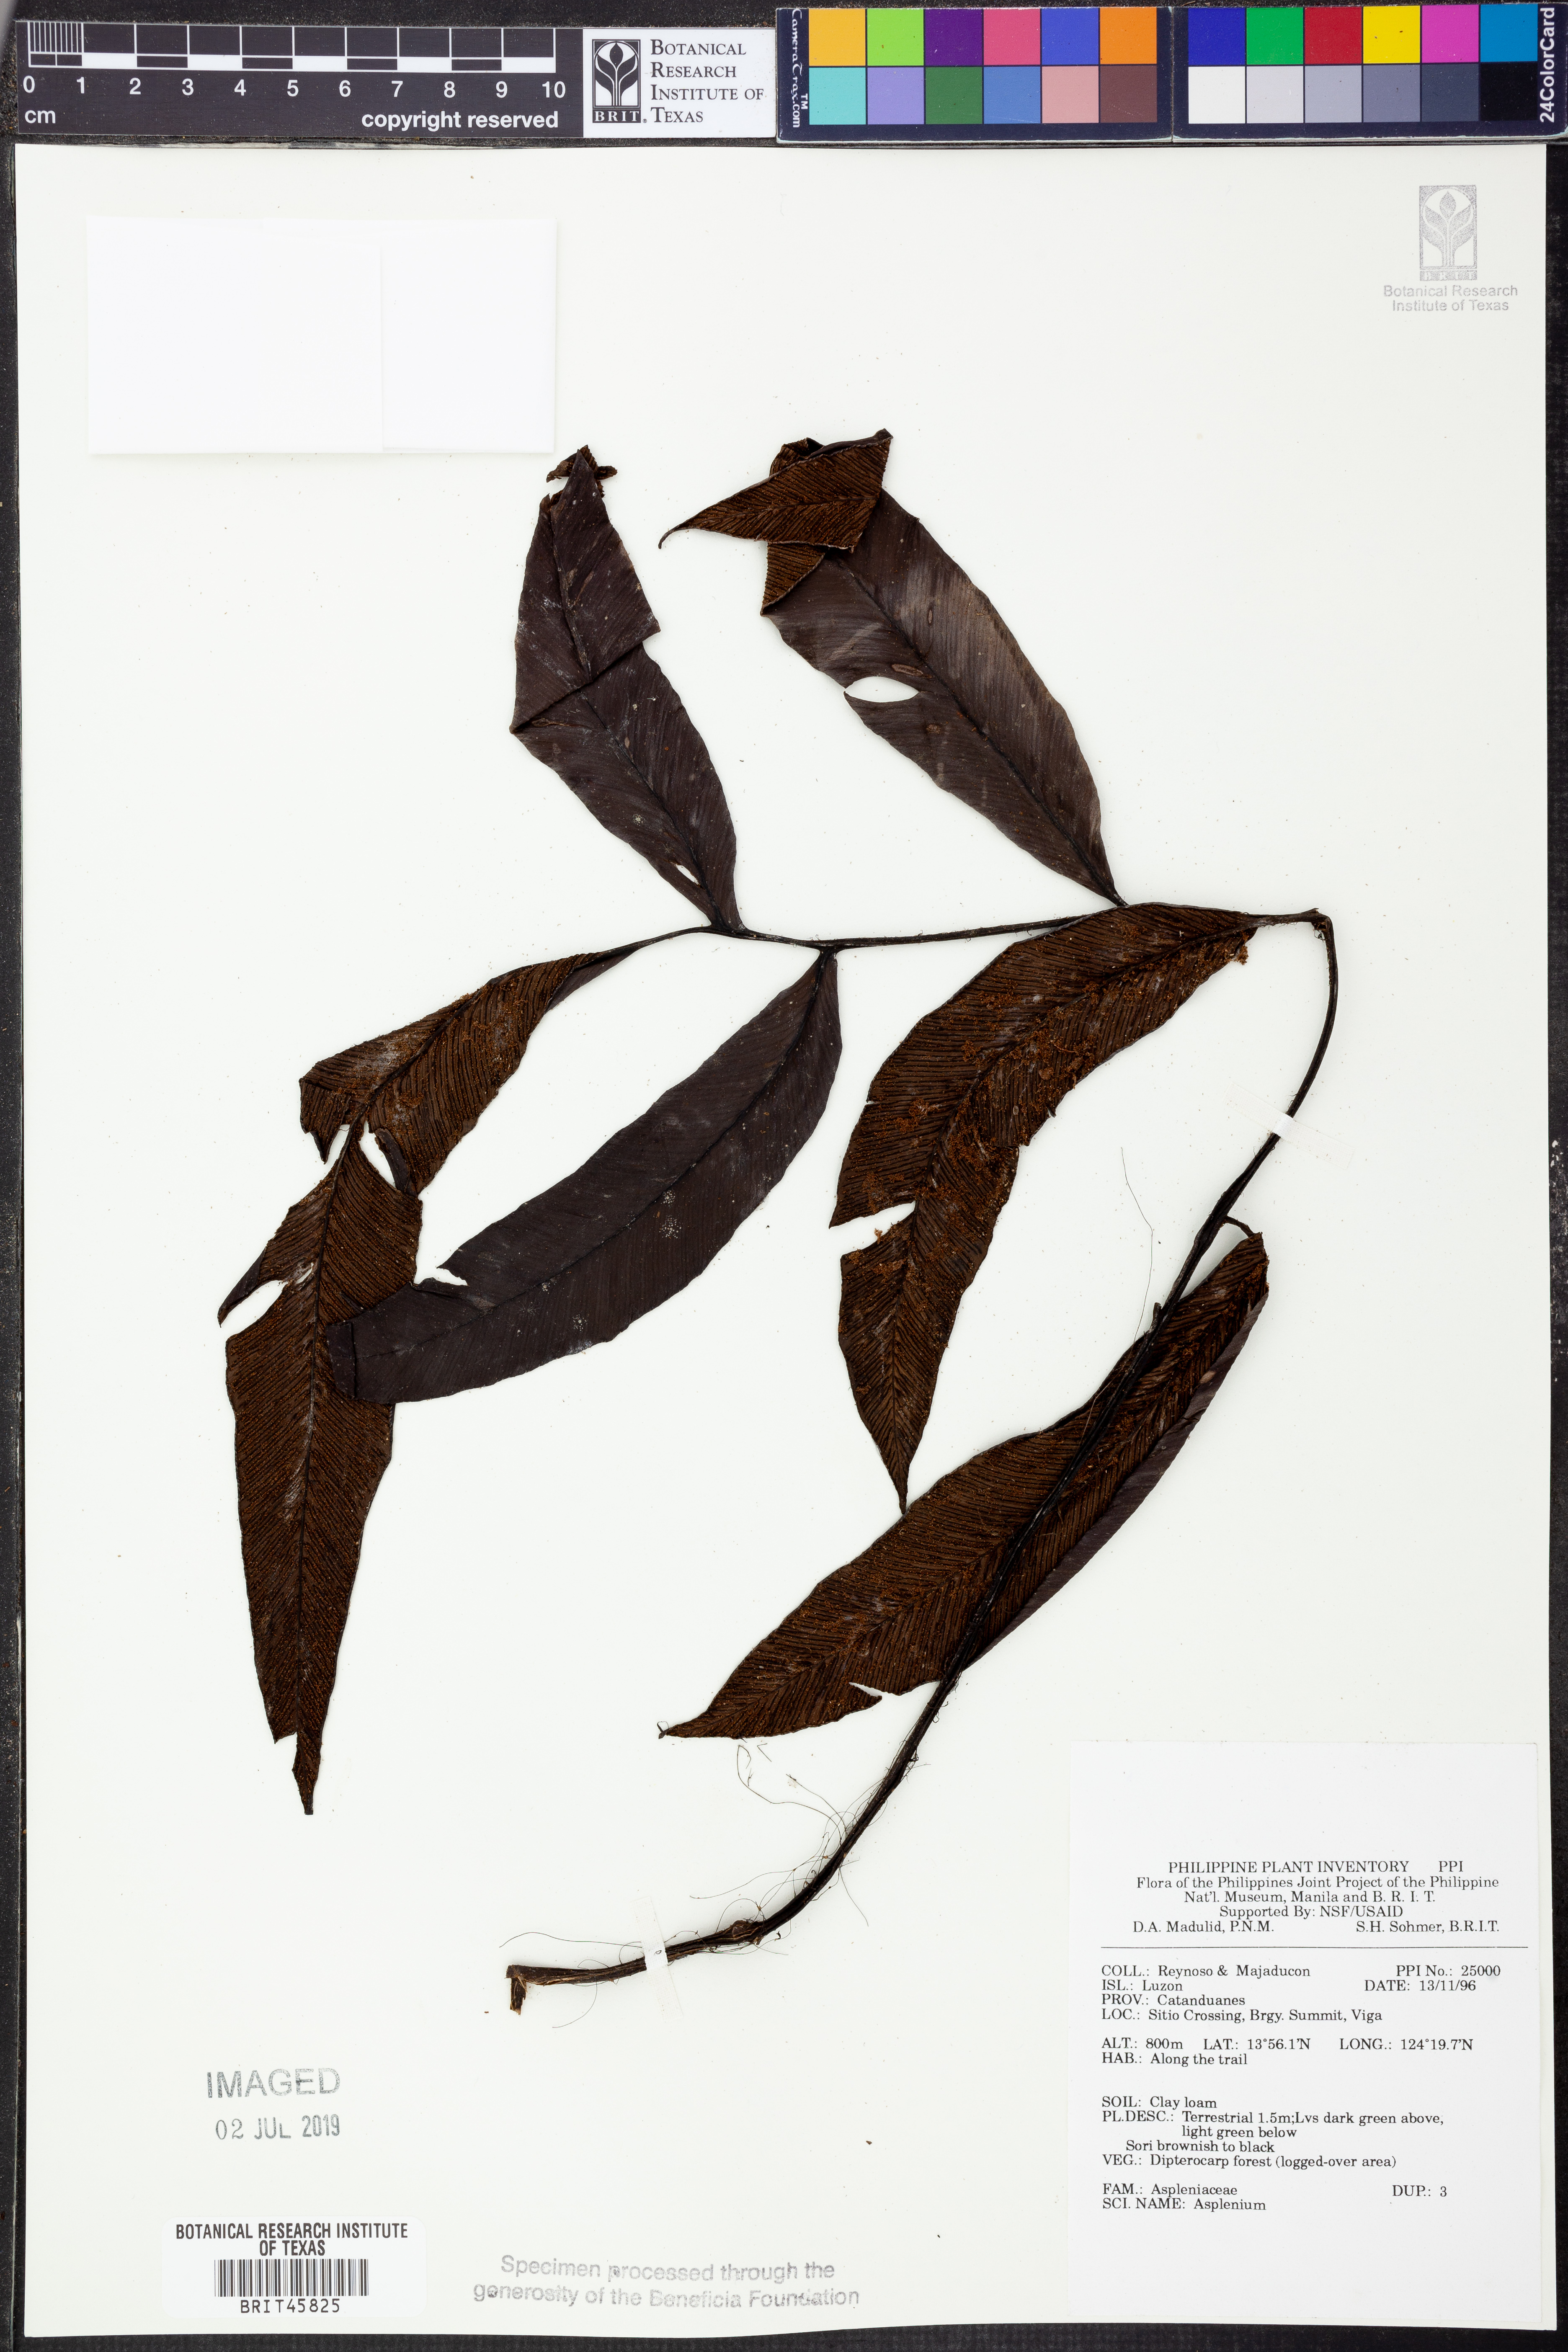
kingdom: Plantae
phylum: Tracheophyta
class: Polypodiopsida
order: Polypodiales
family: Aspleniaceae
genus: Asplenium
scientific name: Asplenium
